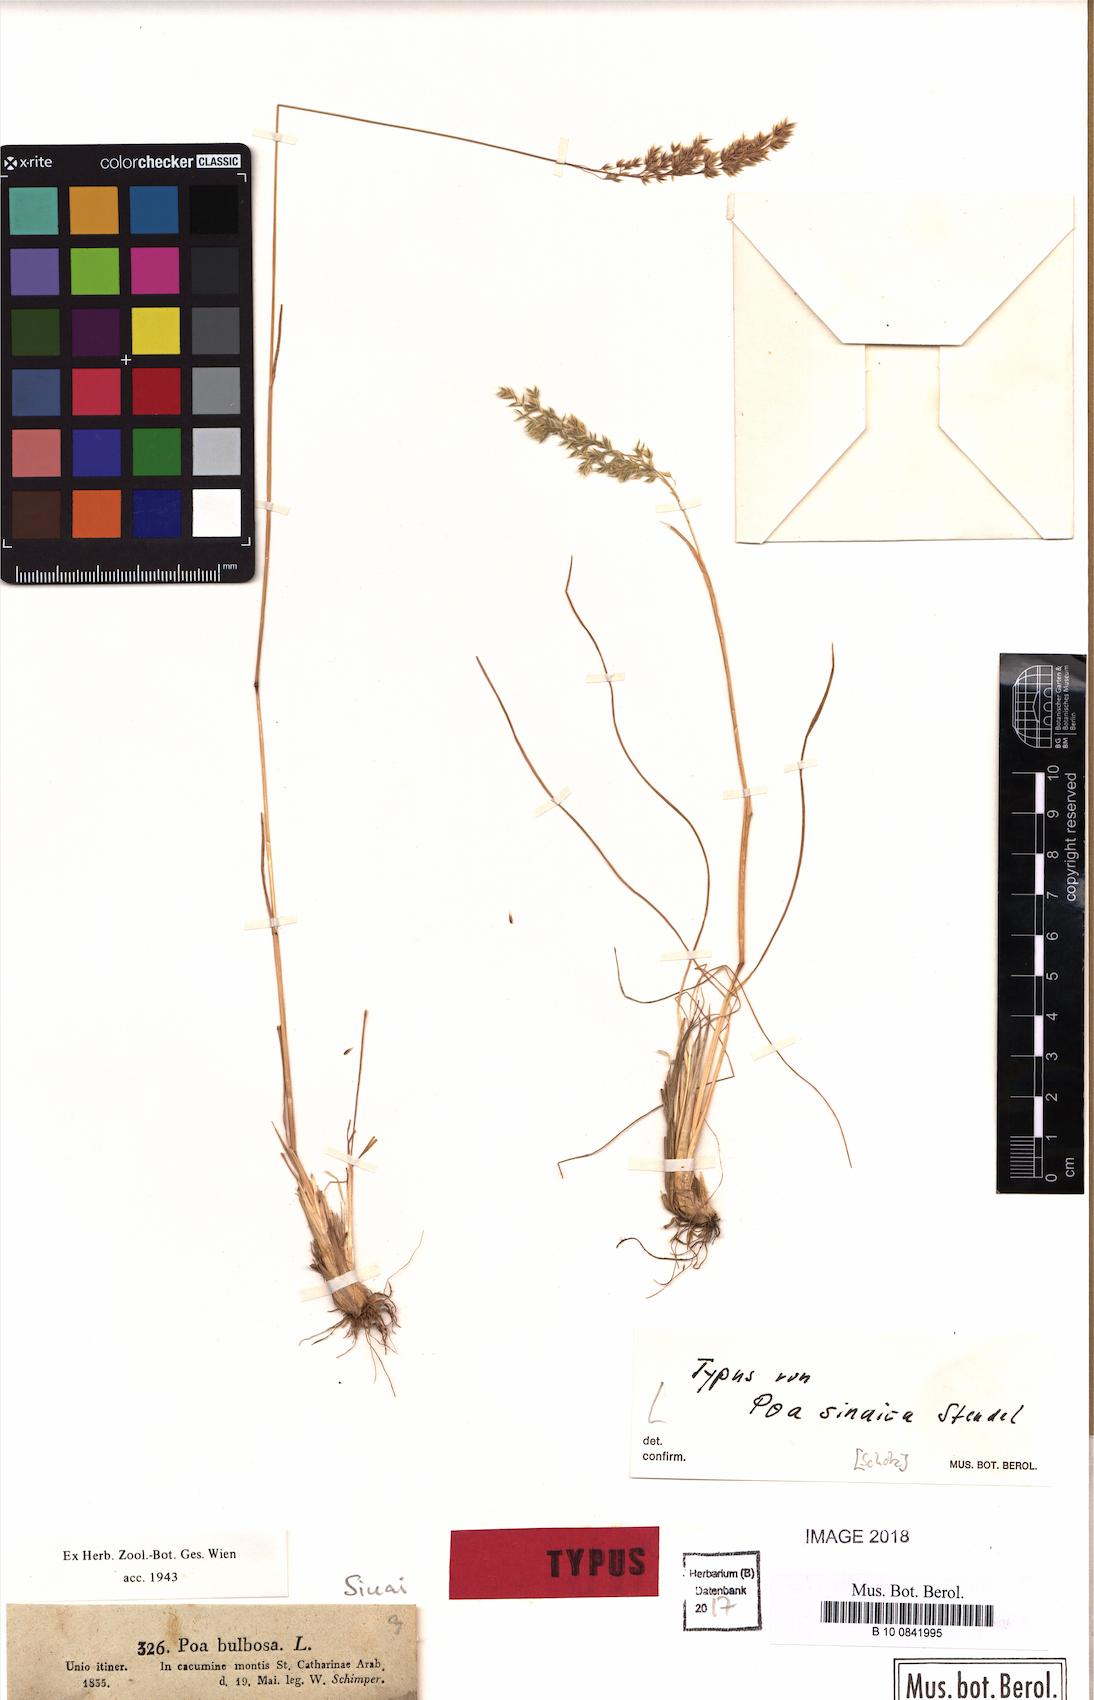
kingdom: Plantae
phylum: Tracheophyta
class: Liliopsida
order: Poales
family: Poaceae
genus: Poa
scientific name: Poa sinaica
